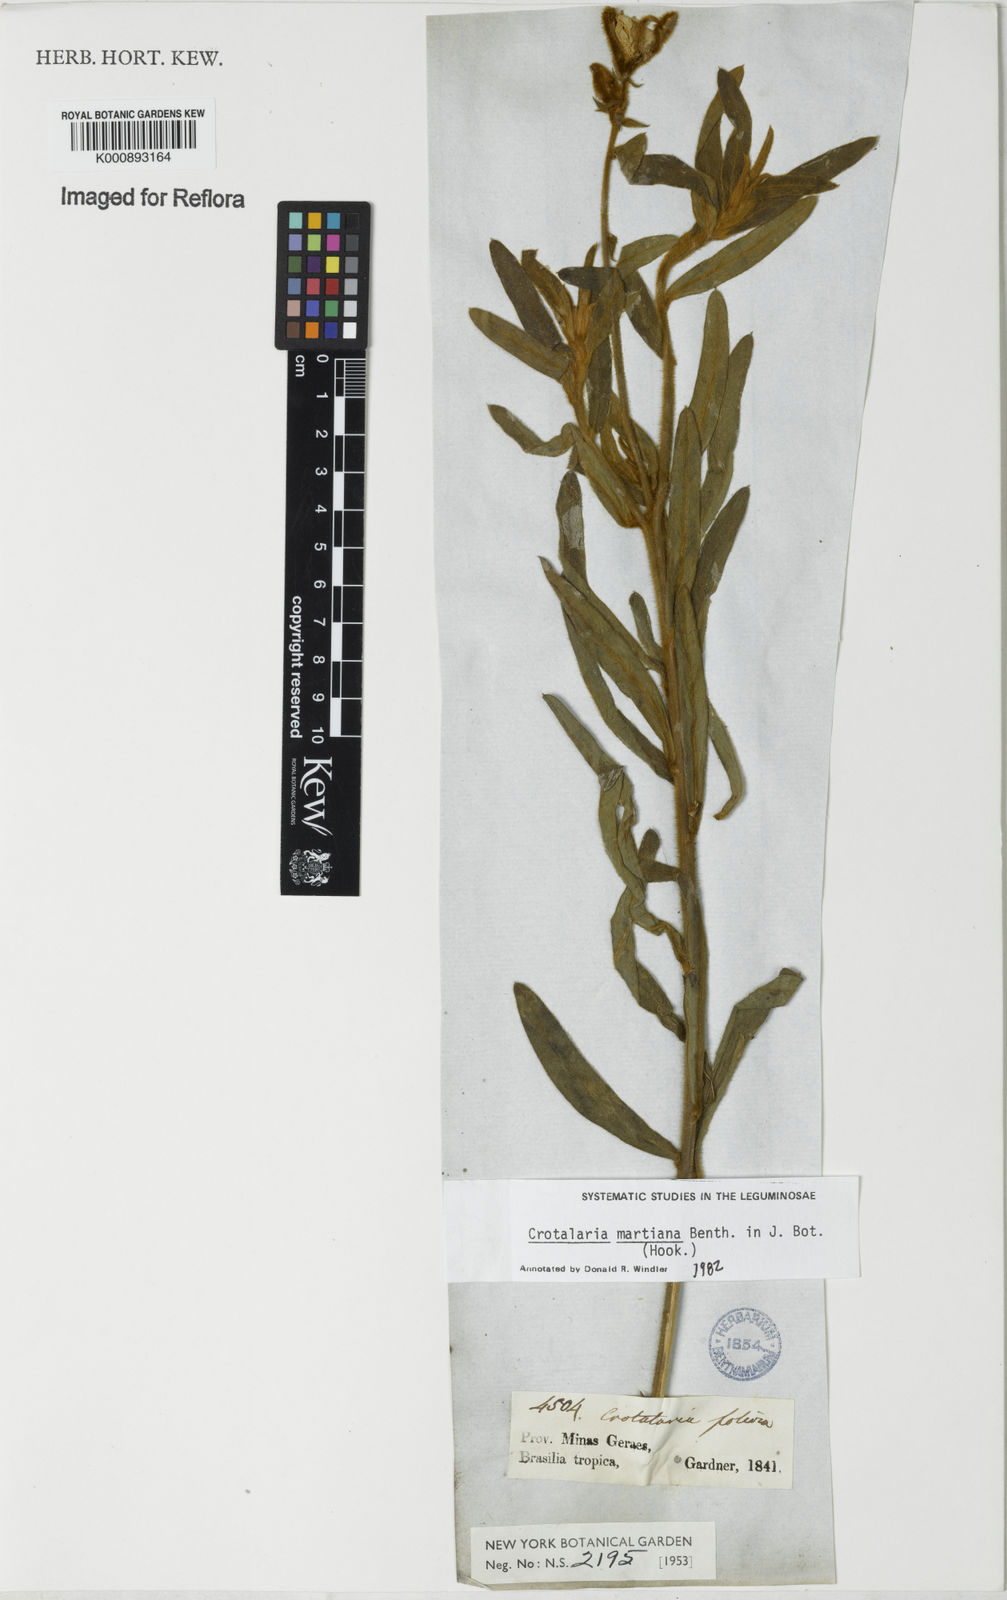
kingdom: Plantae
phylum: Tracheophyta
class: Magnoliopsida
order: Fabales
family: Fabaceae
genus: Crotalaria
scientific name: Crotalaria martiana
